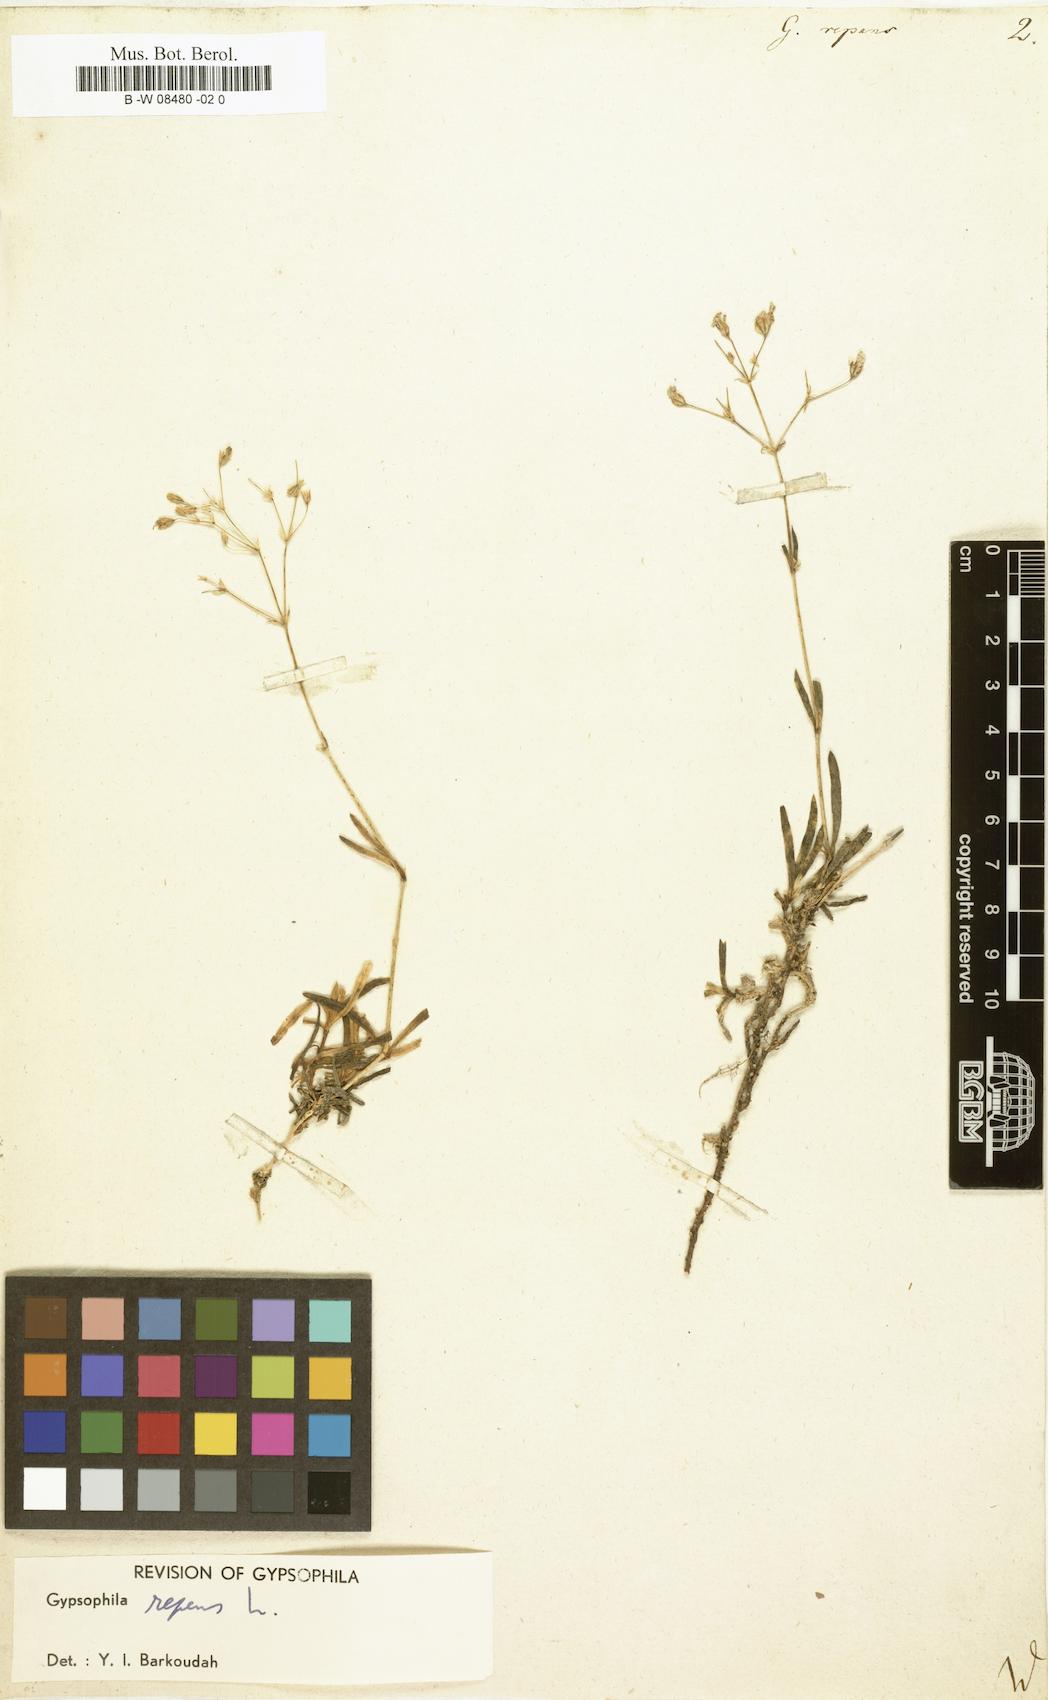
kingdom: Plantae
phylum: Tracheophyta
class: Magnoliopsida
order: Caryophyllales
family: Caryophyllaceae
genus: Gypsophila
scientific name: Gypsophila repens
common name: Creeping baby's-breath
